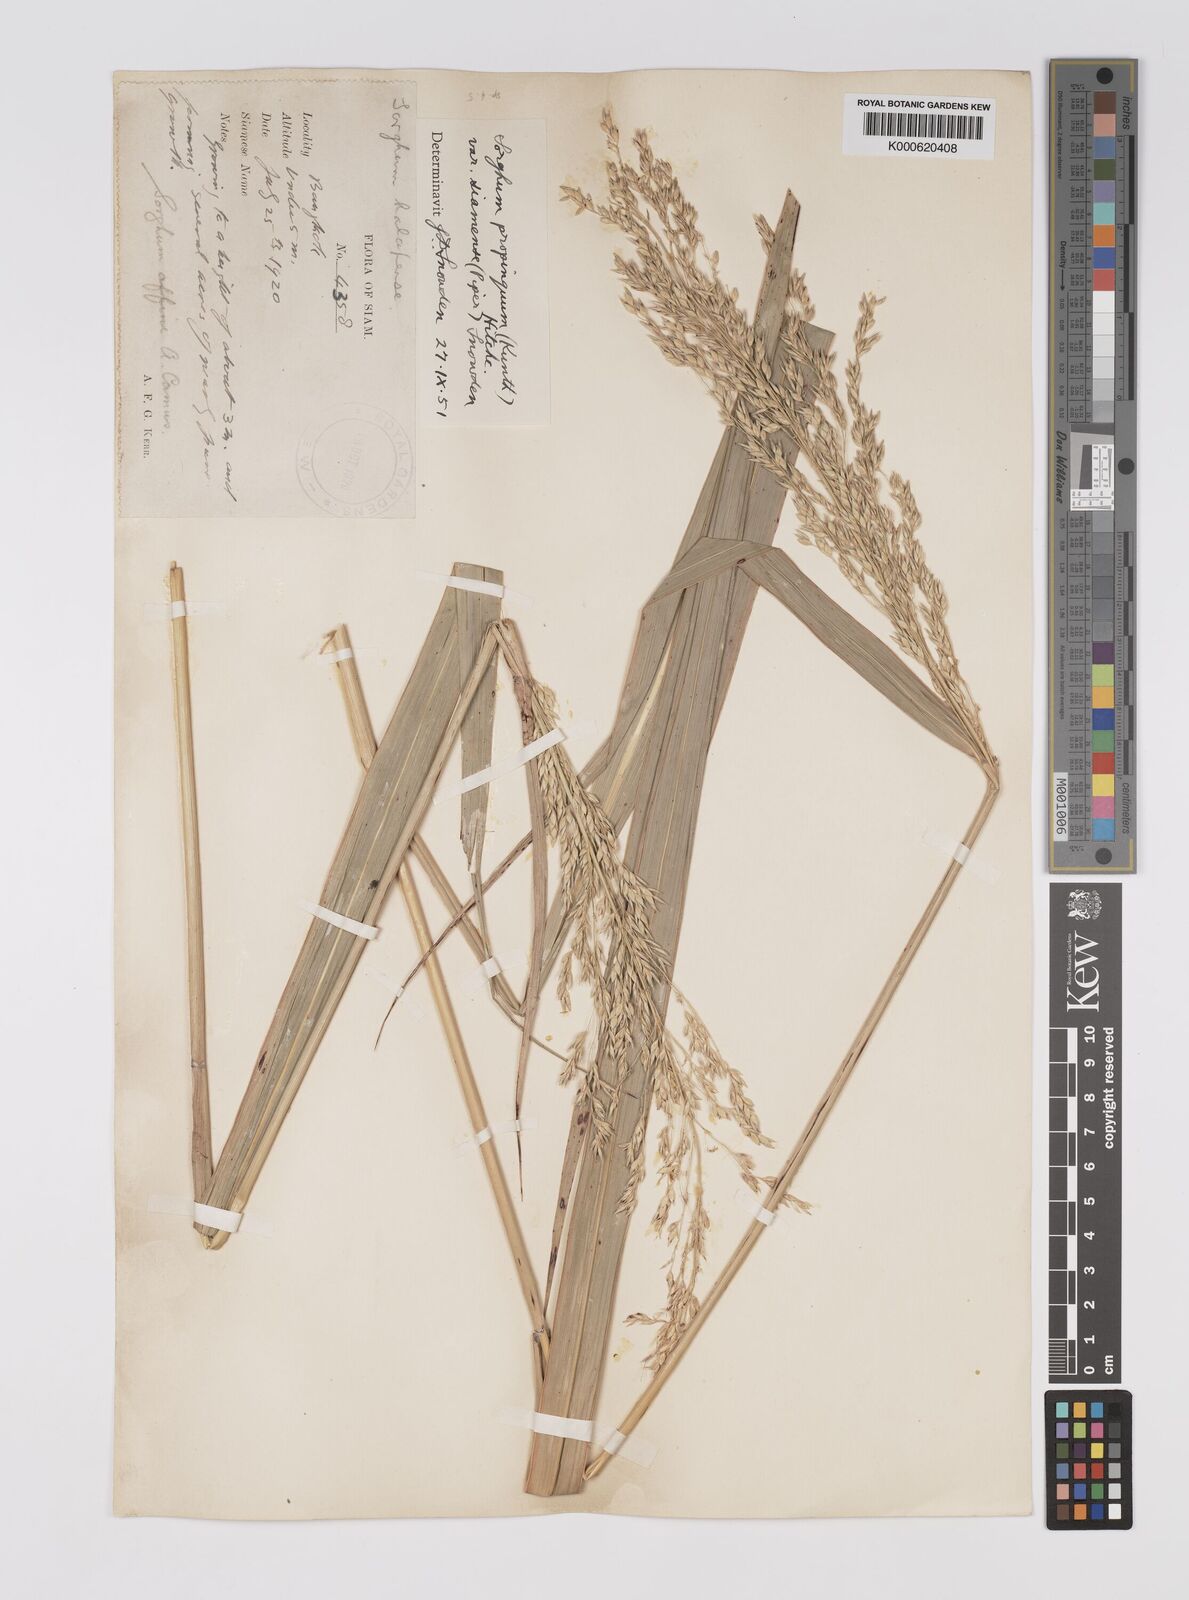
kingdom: Plantae
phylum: Tracheophyta
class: Liliopsida
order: Poales
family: Poaceae
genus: Sorghum
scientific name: Sorghum propinquum
